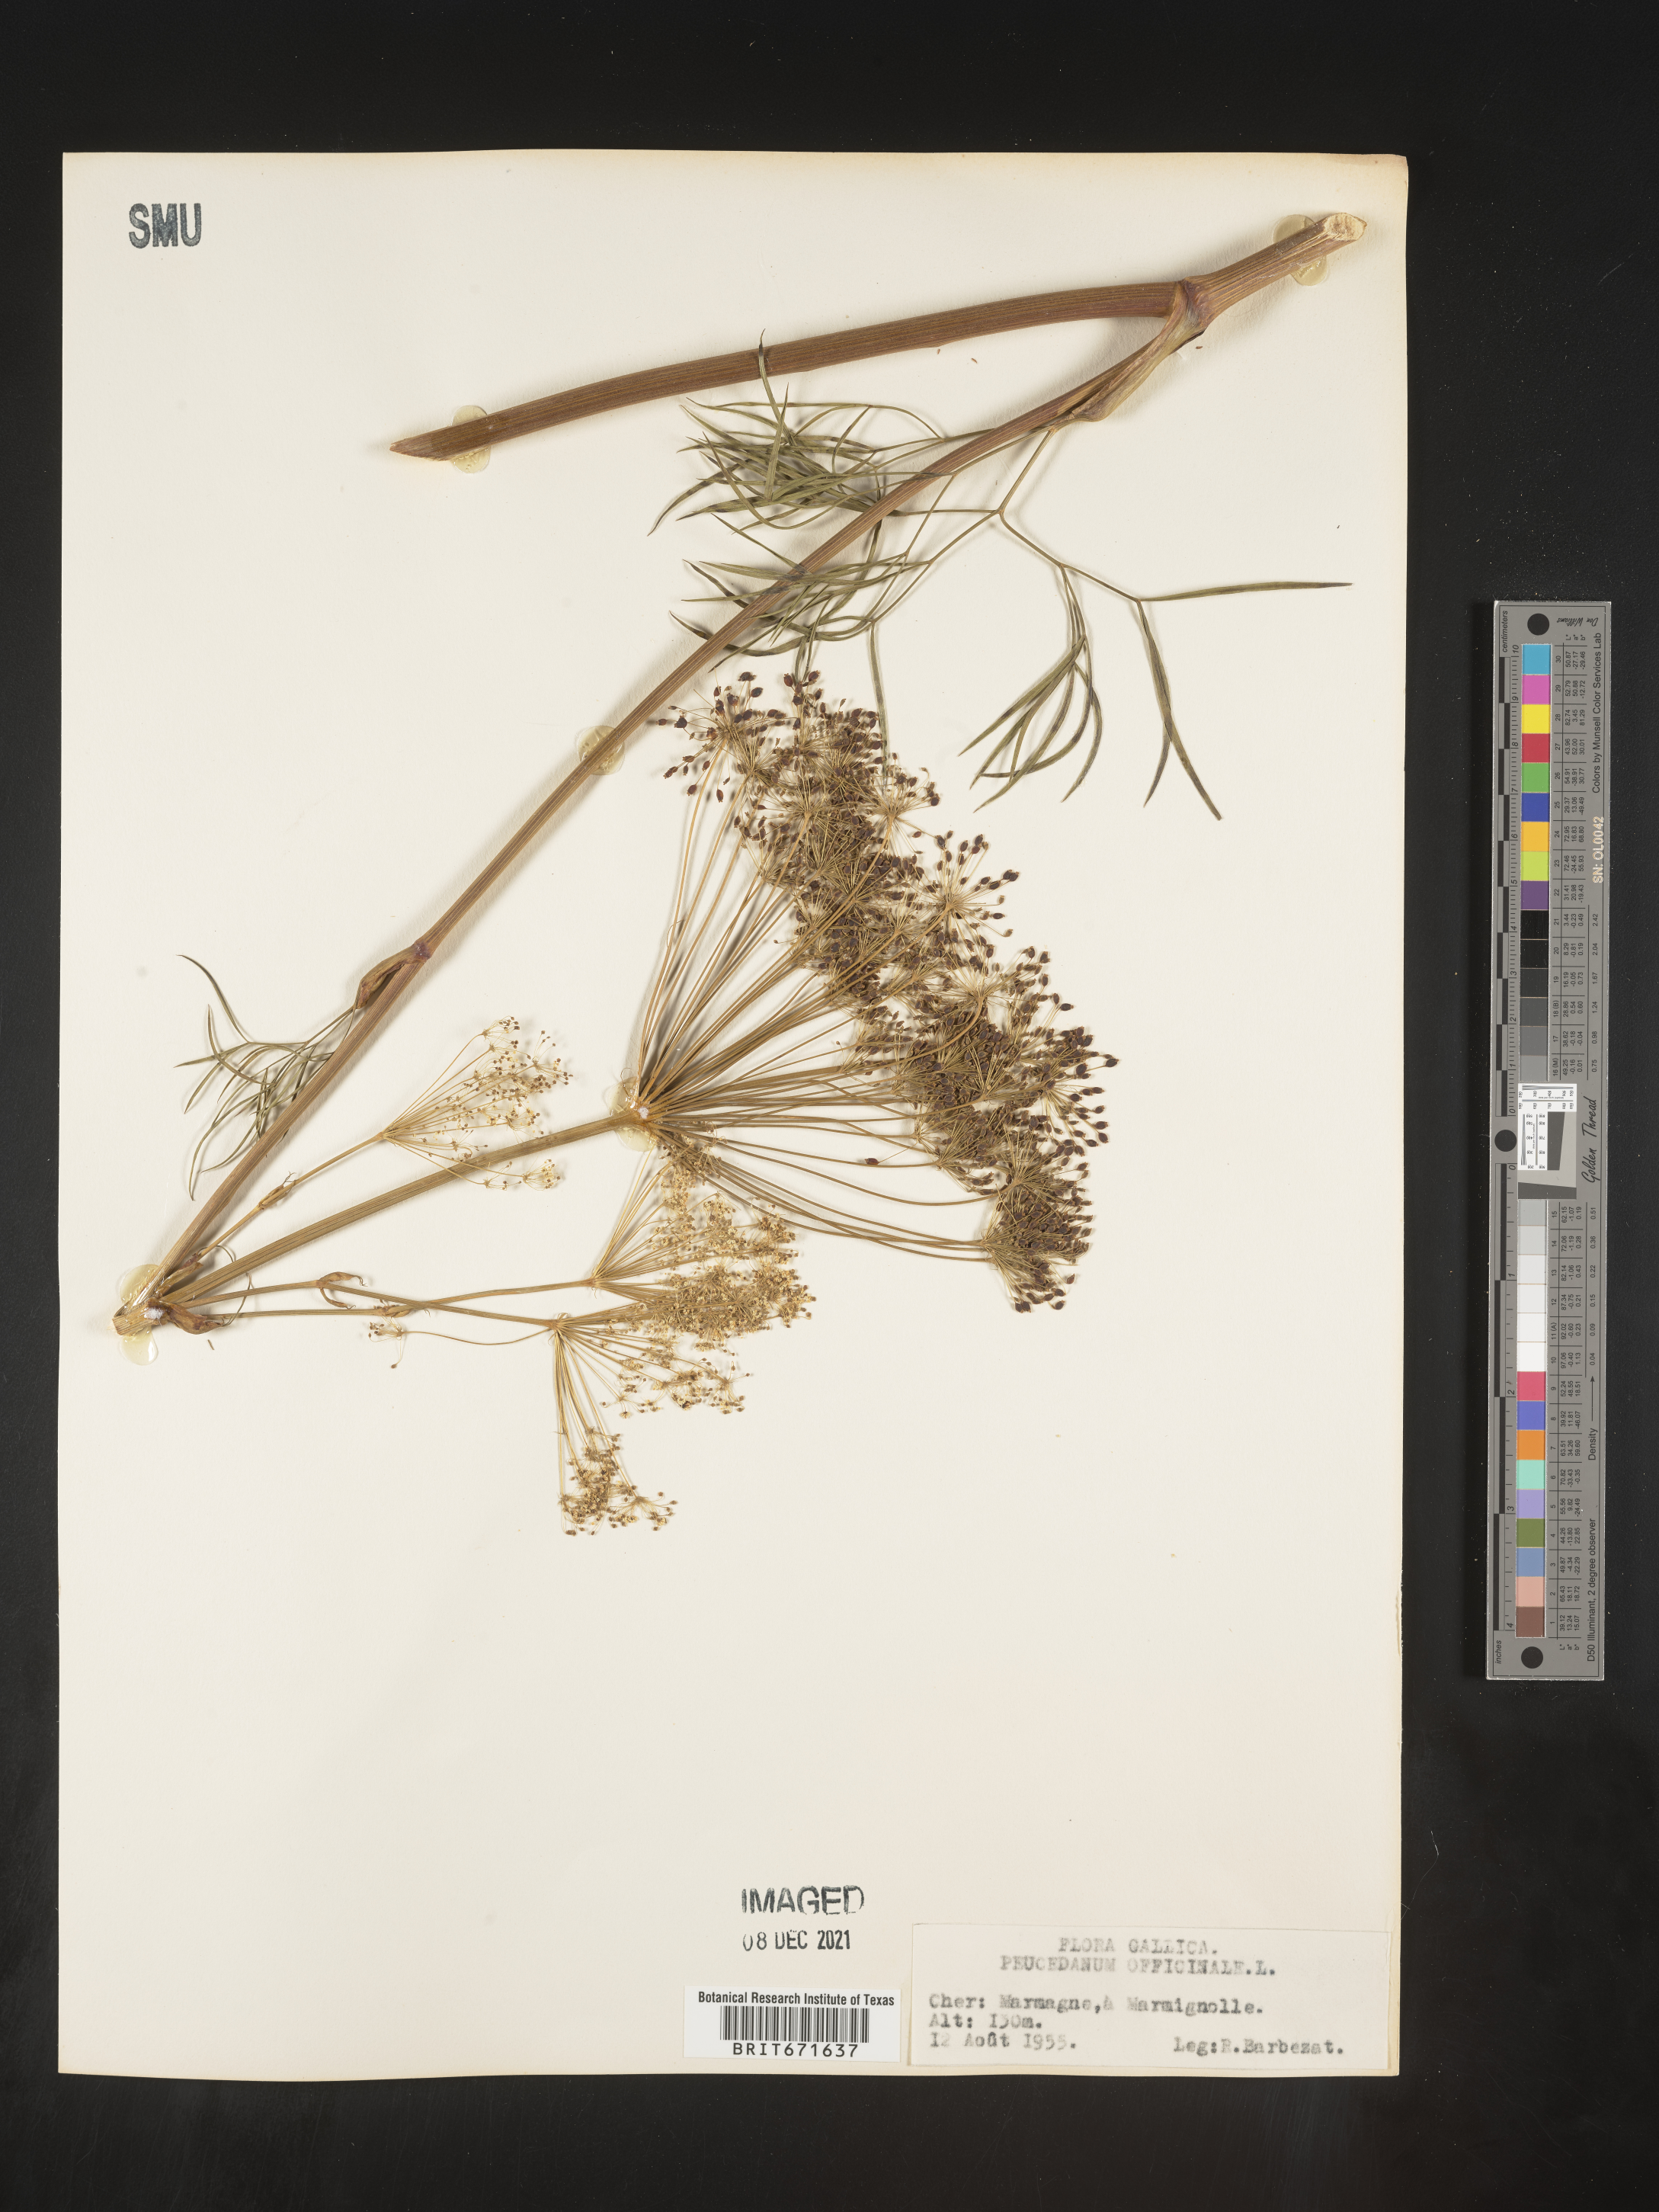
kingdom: Plantae
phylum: Tracheophyta
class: Magnoliopsida
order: Apiales
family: Apiaceae
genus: Peucedanum
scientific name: Peucedanum
